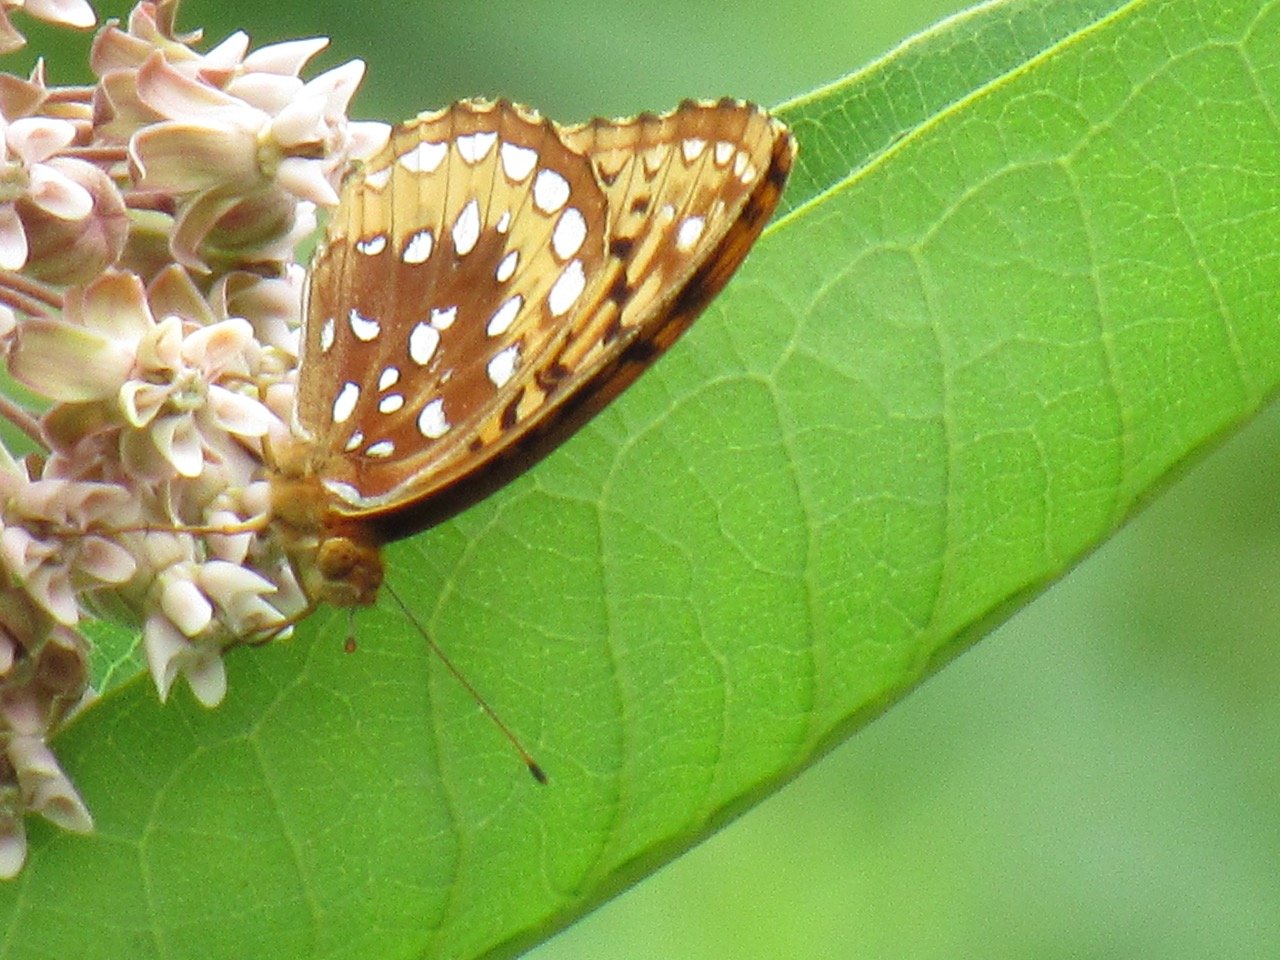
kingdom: Animalia
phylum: Arthropoda
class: Insecta
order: Lepidoptera
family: Nymphalidae
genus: Speyeria
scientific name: Speyeria cybele
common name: Great Spangled Fritillary
